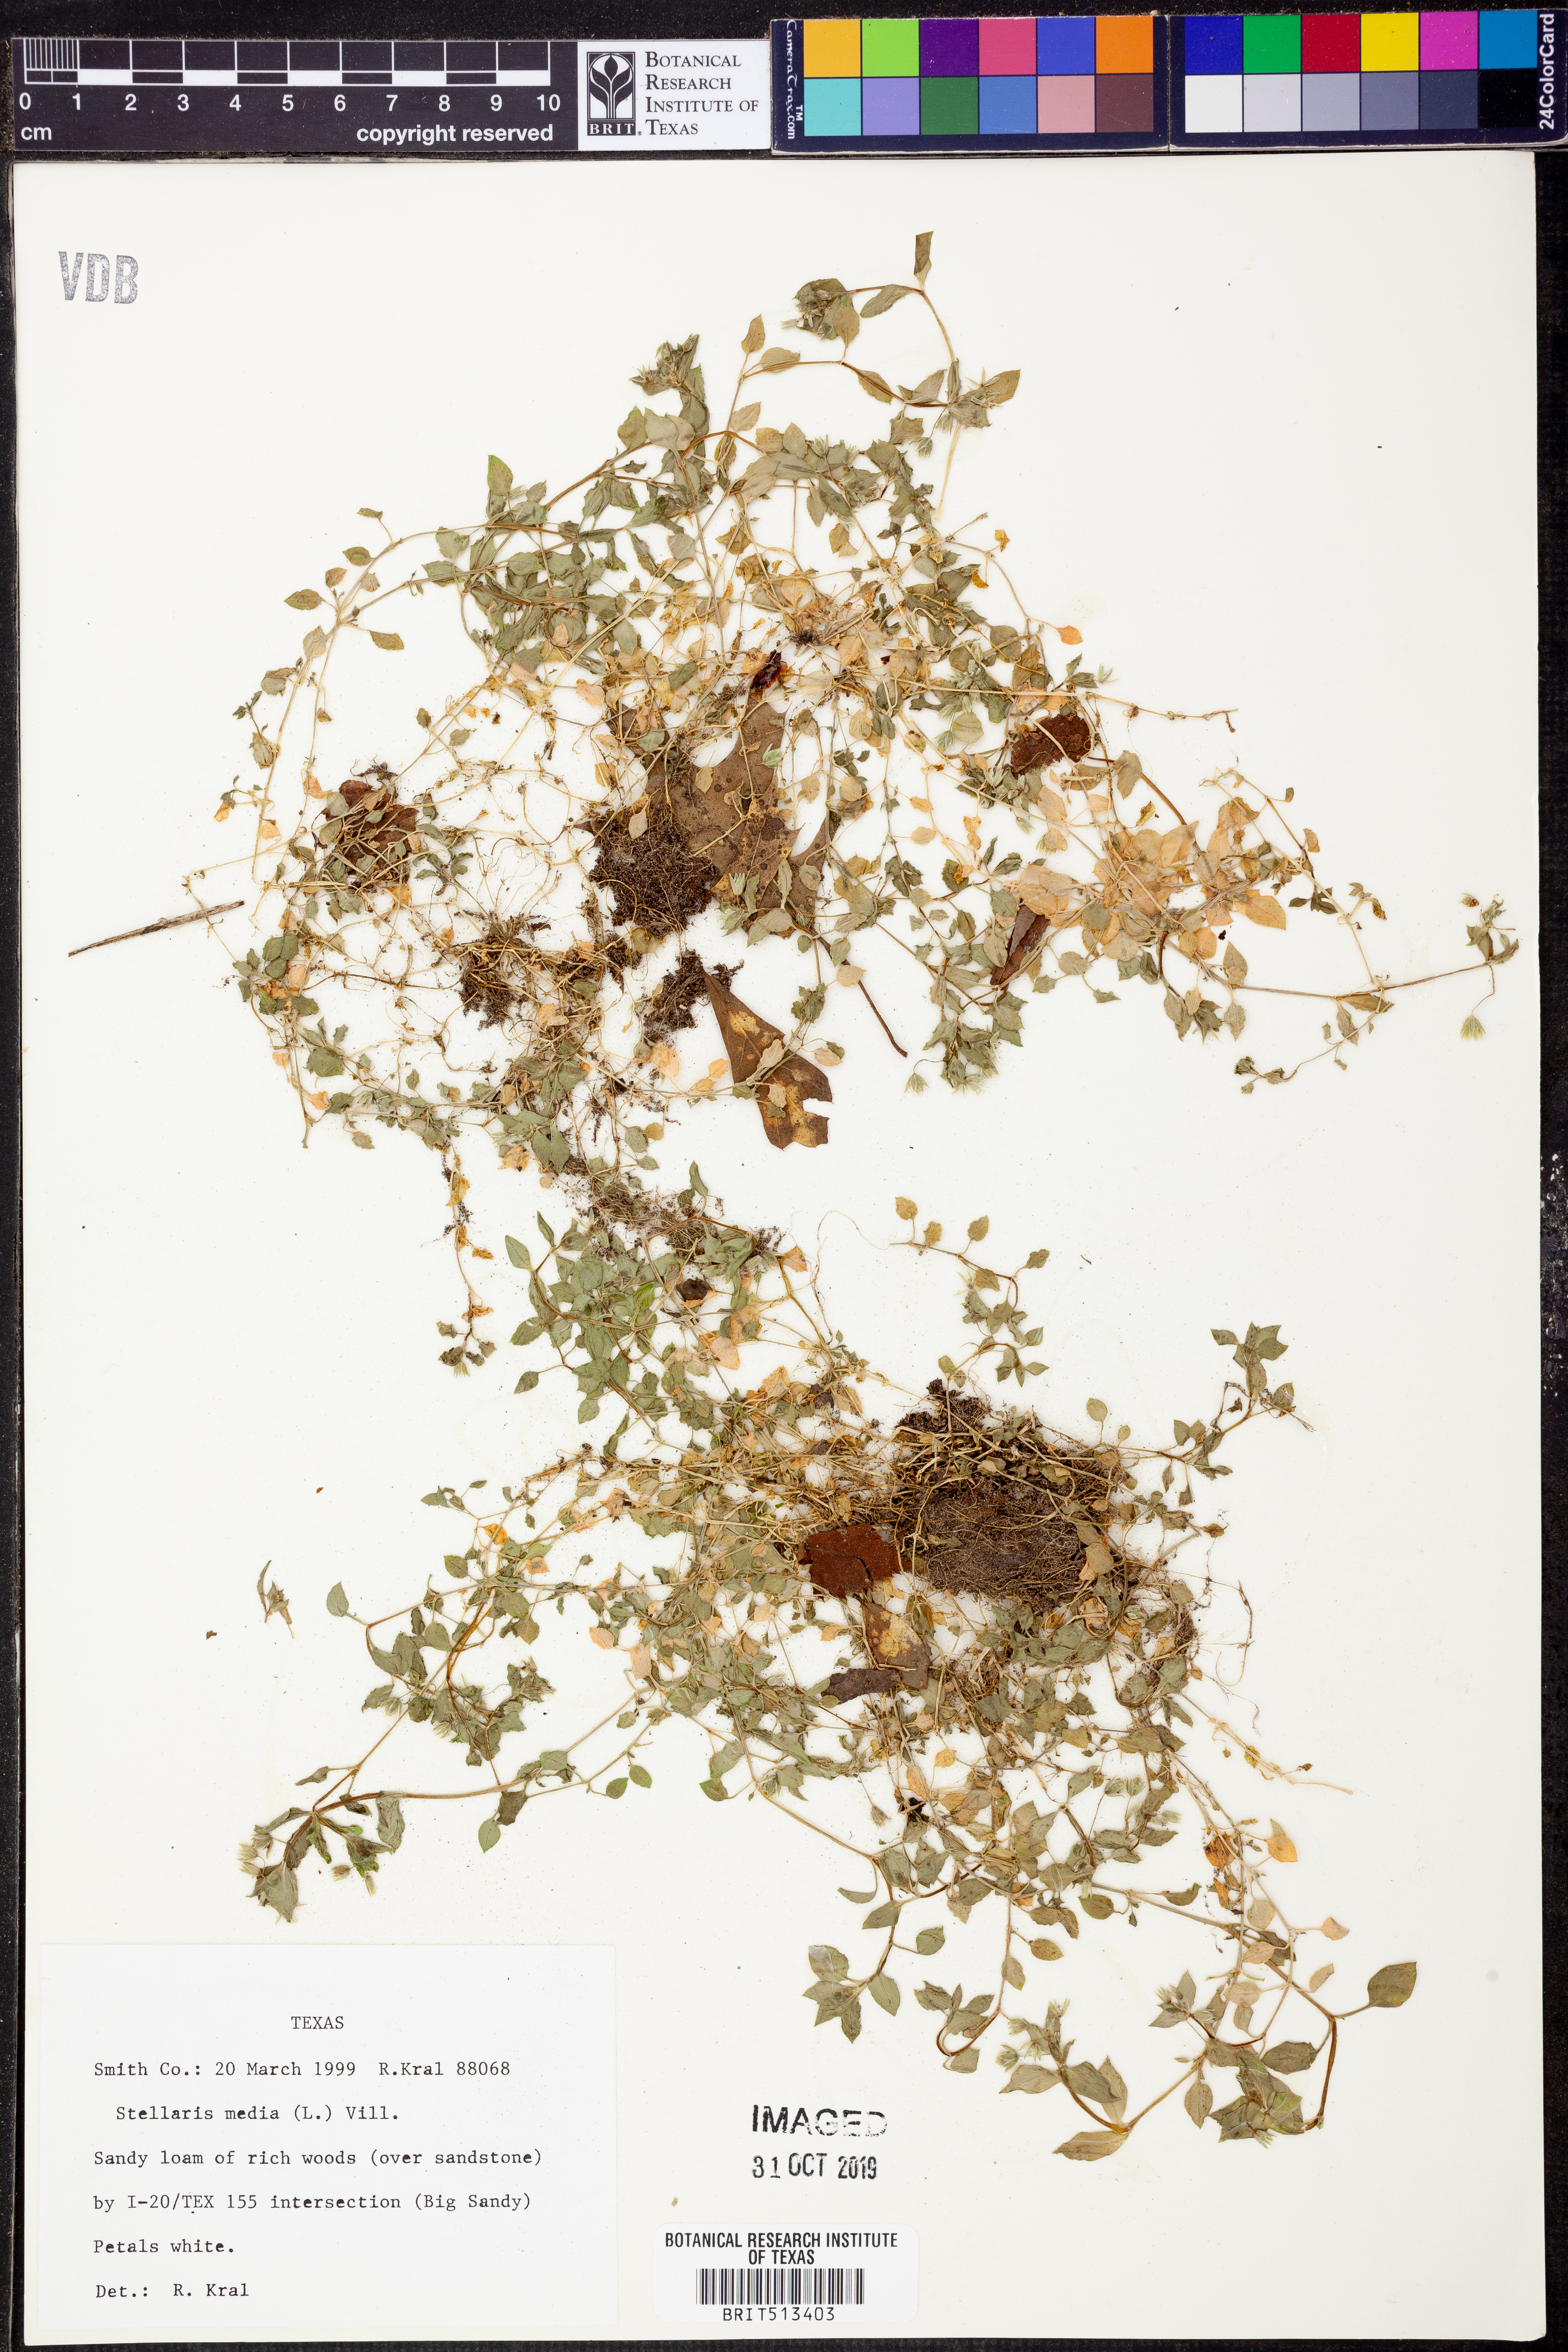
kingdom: Plantae
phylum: Tracheophyta
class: Magnoliopsida
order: Caryophyllales
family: Caryophyllaceae
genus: Stellaria
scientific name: Stellaria media
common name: Common chickweed
